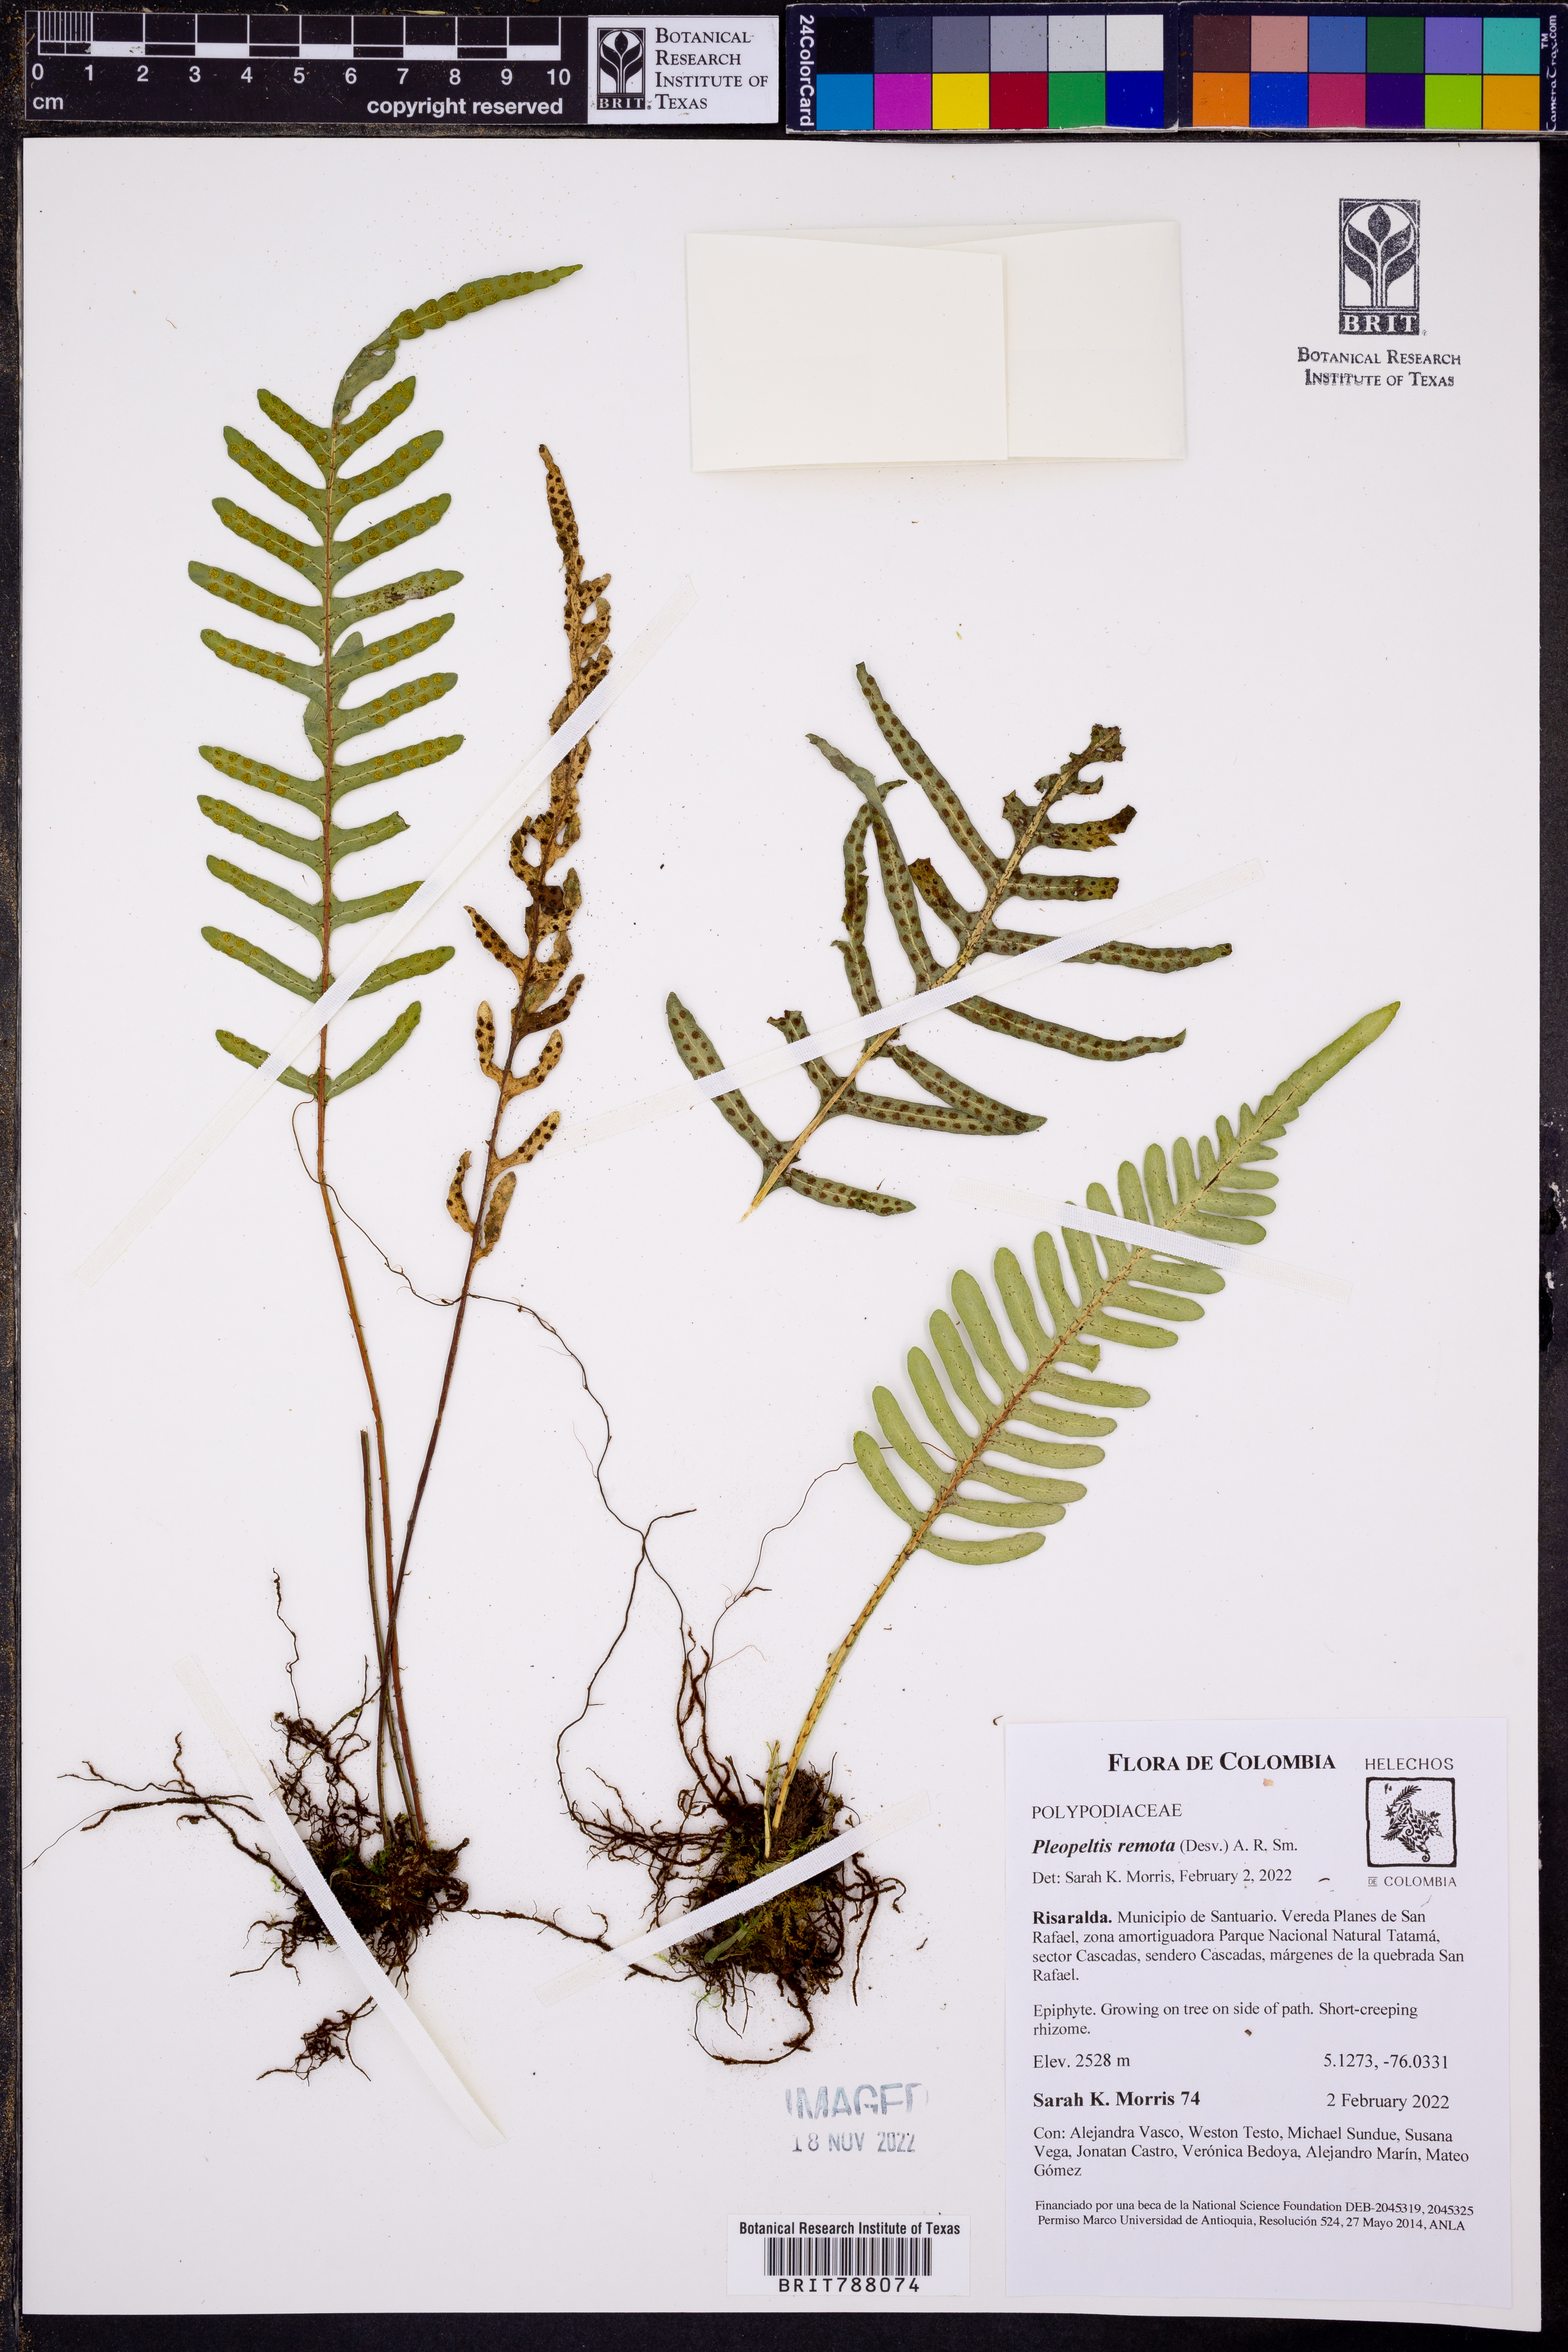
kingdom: Plantae
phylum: Tracheophyta
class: Polypodiopsida
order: Polypodiales
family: Polypodiaceae
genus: Pleopeltis
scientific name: Pleopeltis remota
